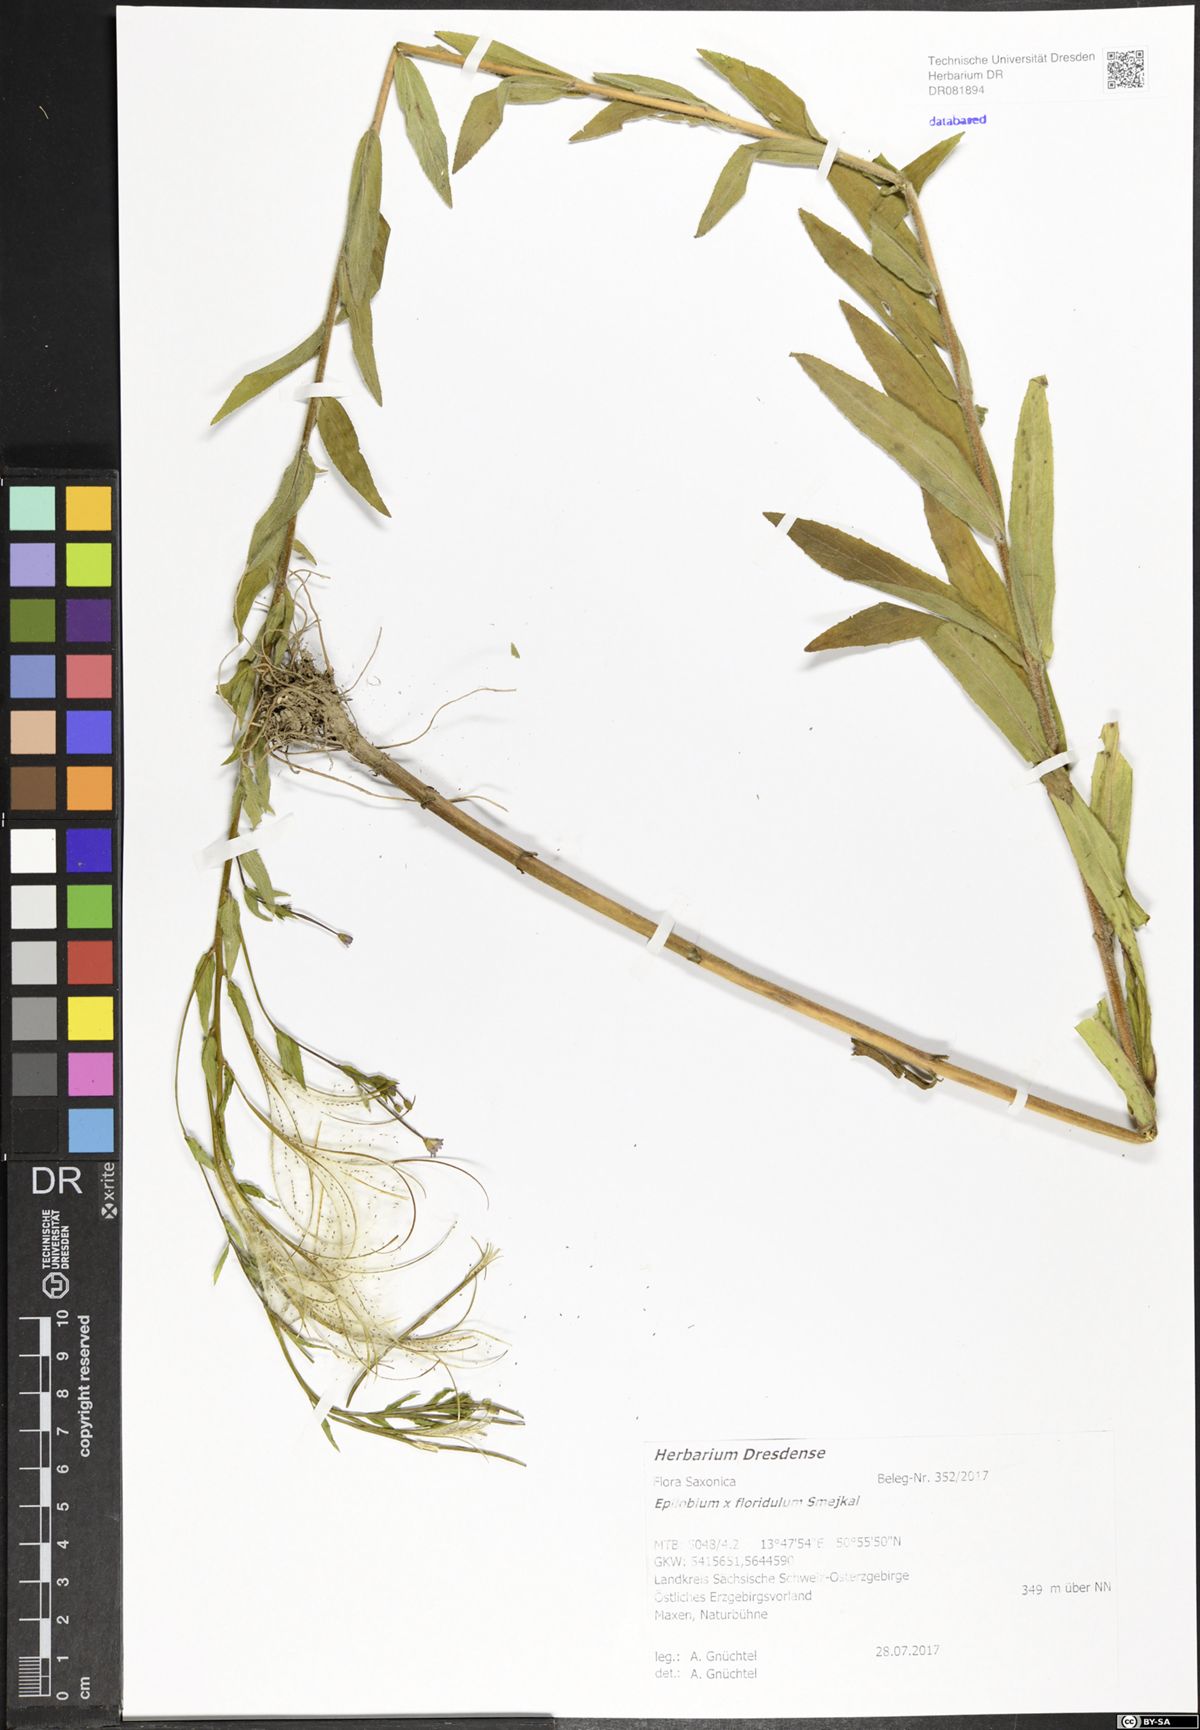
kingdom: Plantae
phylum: Tracheophyta
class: Magnoliopsida
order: Myrtales
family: Onagraceae
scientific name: Onagraceae
